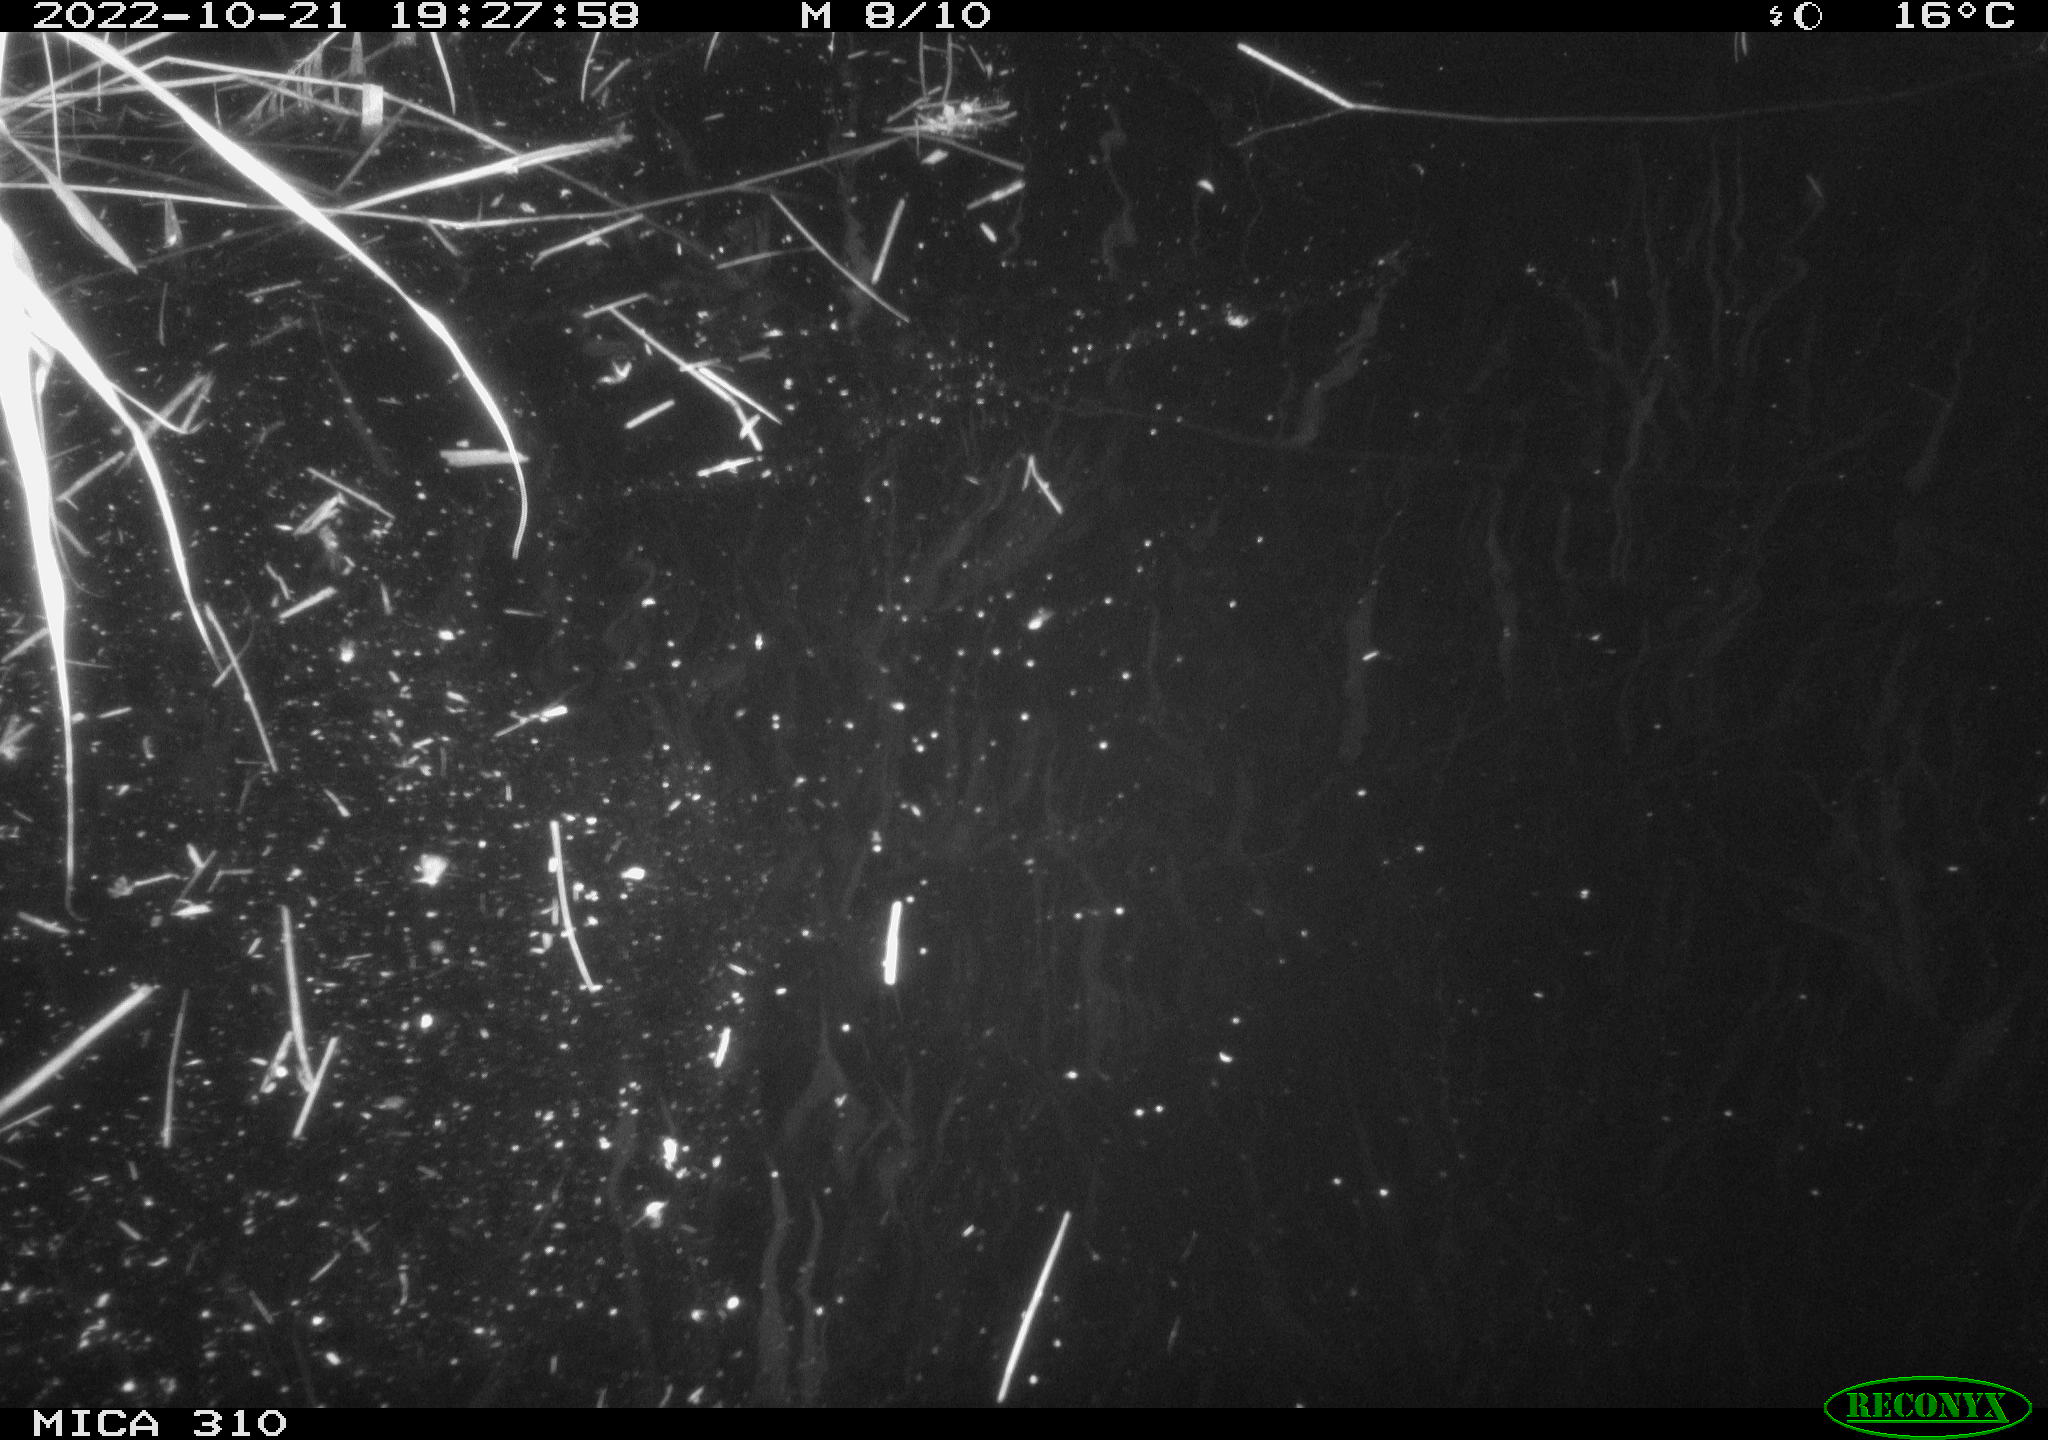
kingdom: Animalia
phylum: Chordata
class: Mammalia
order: Rodentia
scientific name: Rodentia
